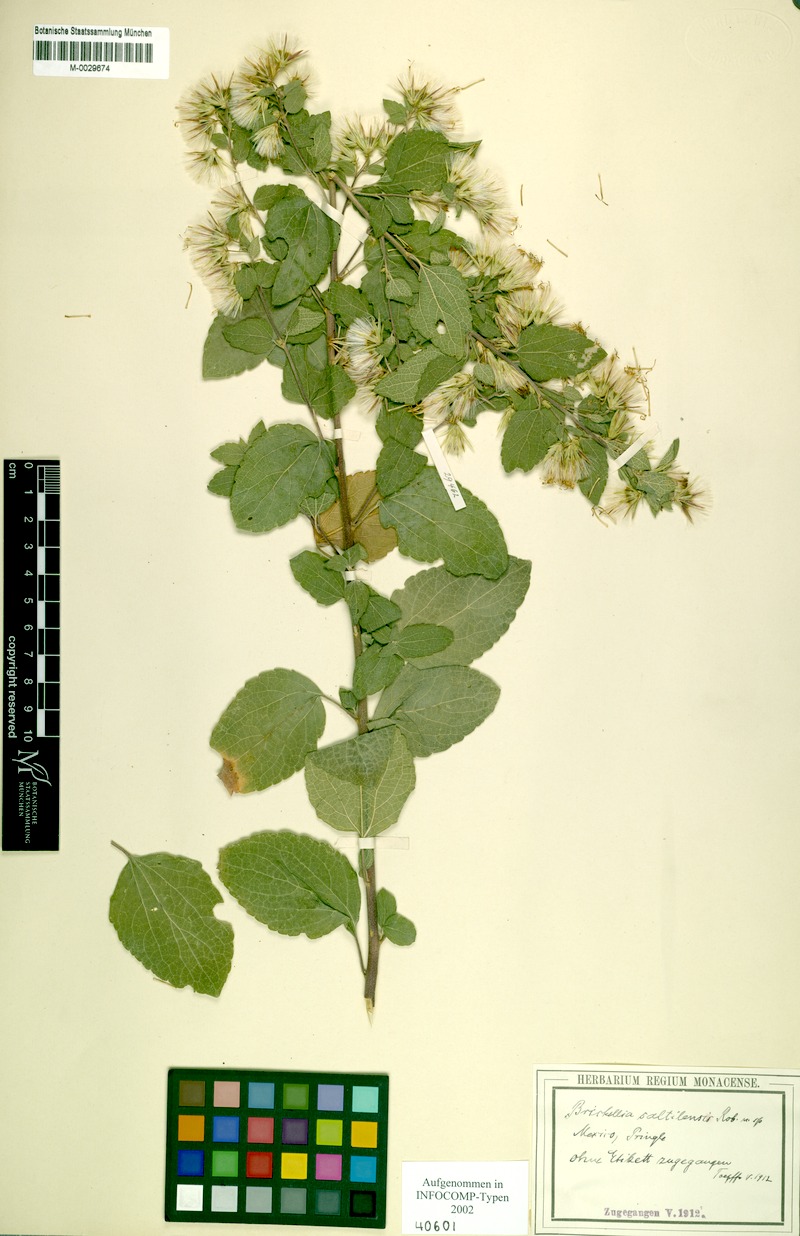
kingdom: Plantae
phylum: Tracheophyta
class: Magnoliopsida
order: Asterales
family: Asteraceae
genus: Brickellia
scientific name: Brickellia secundiflora
